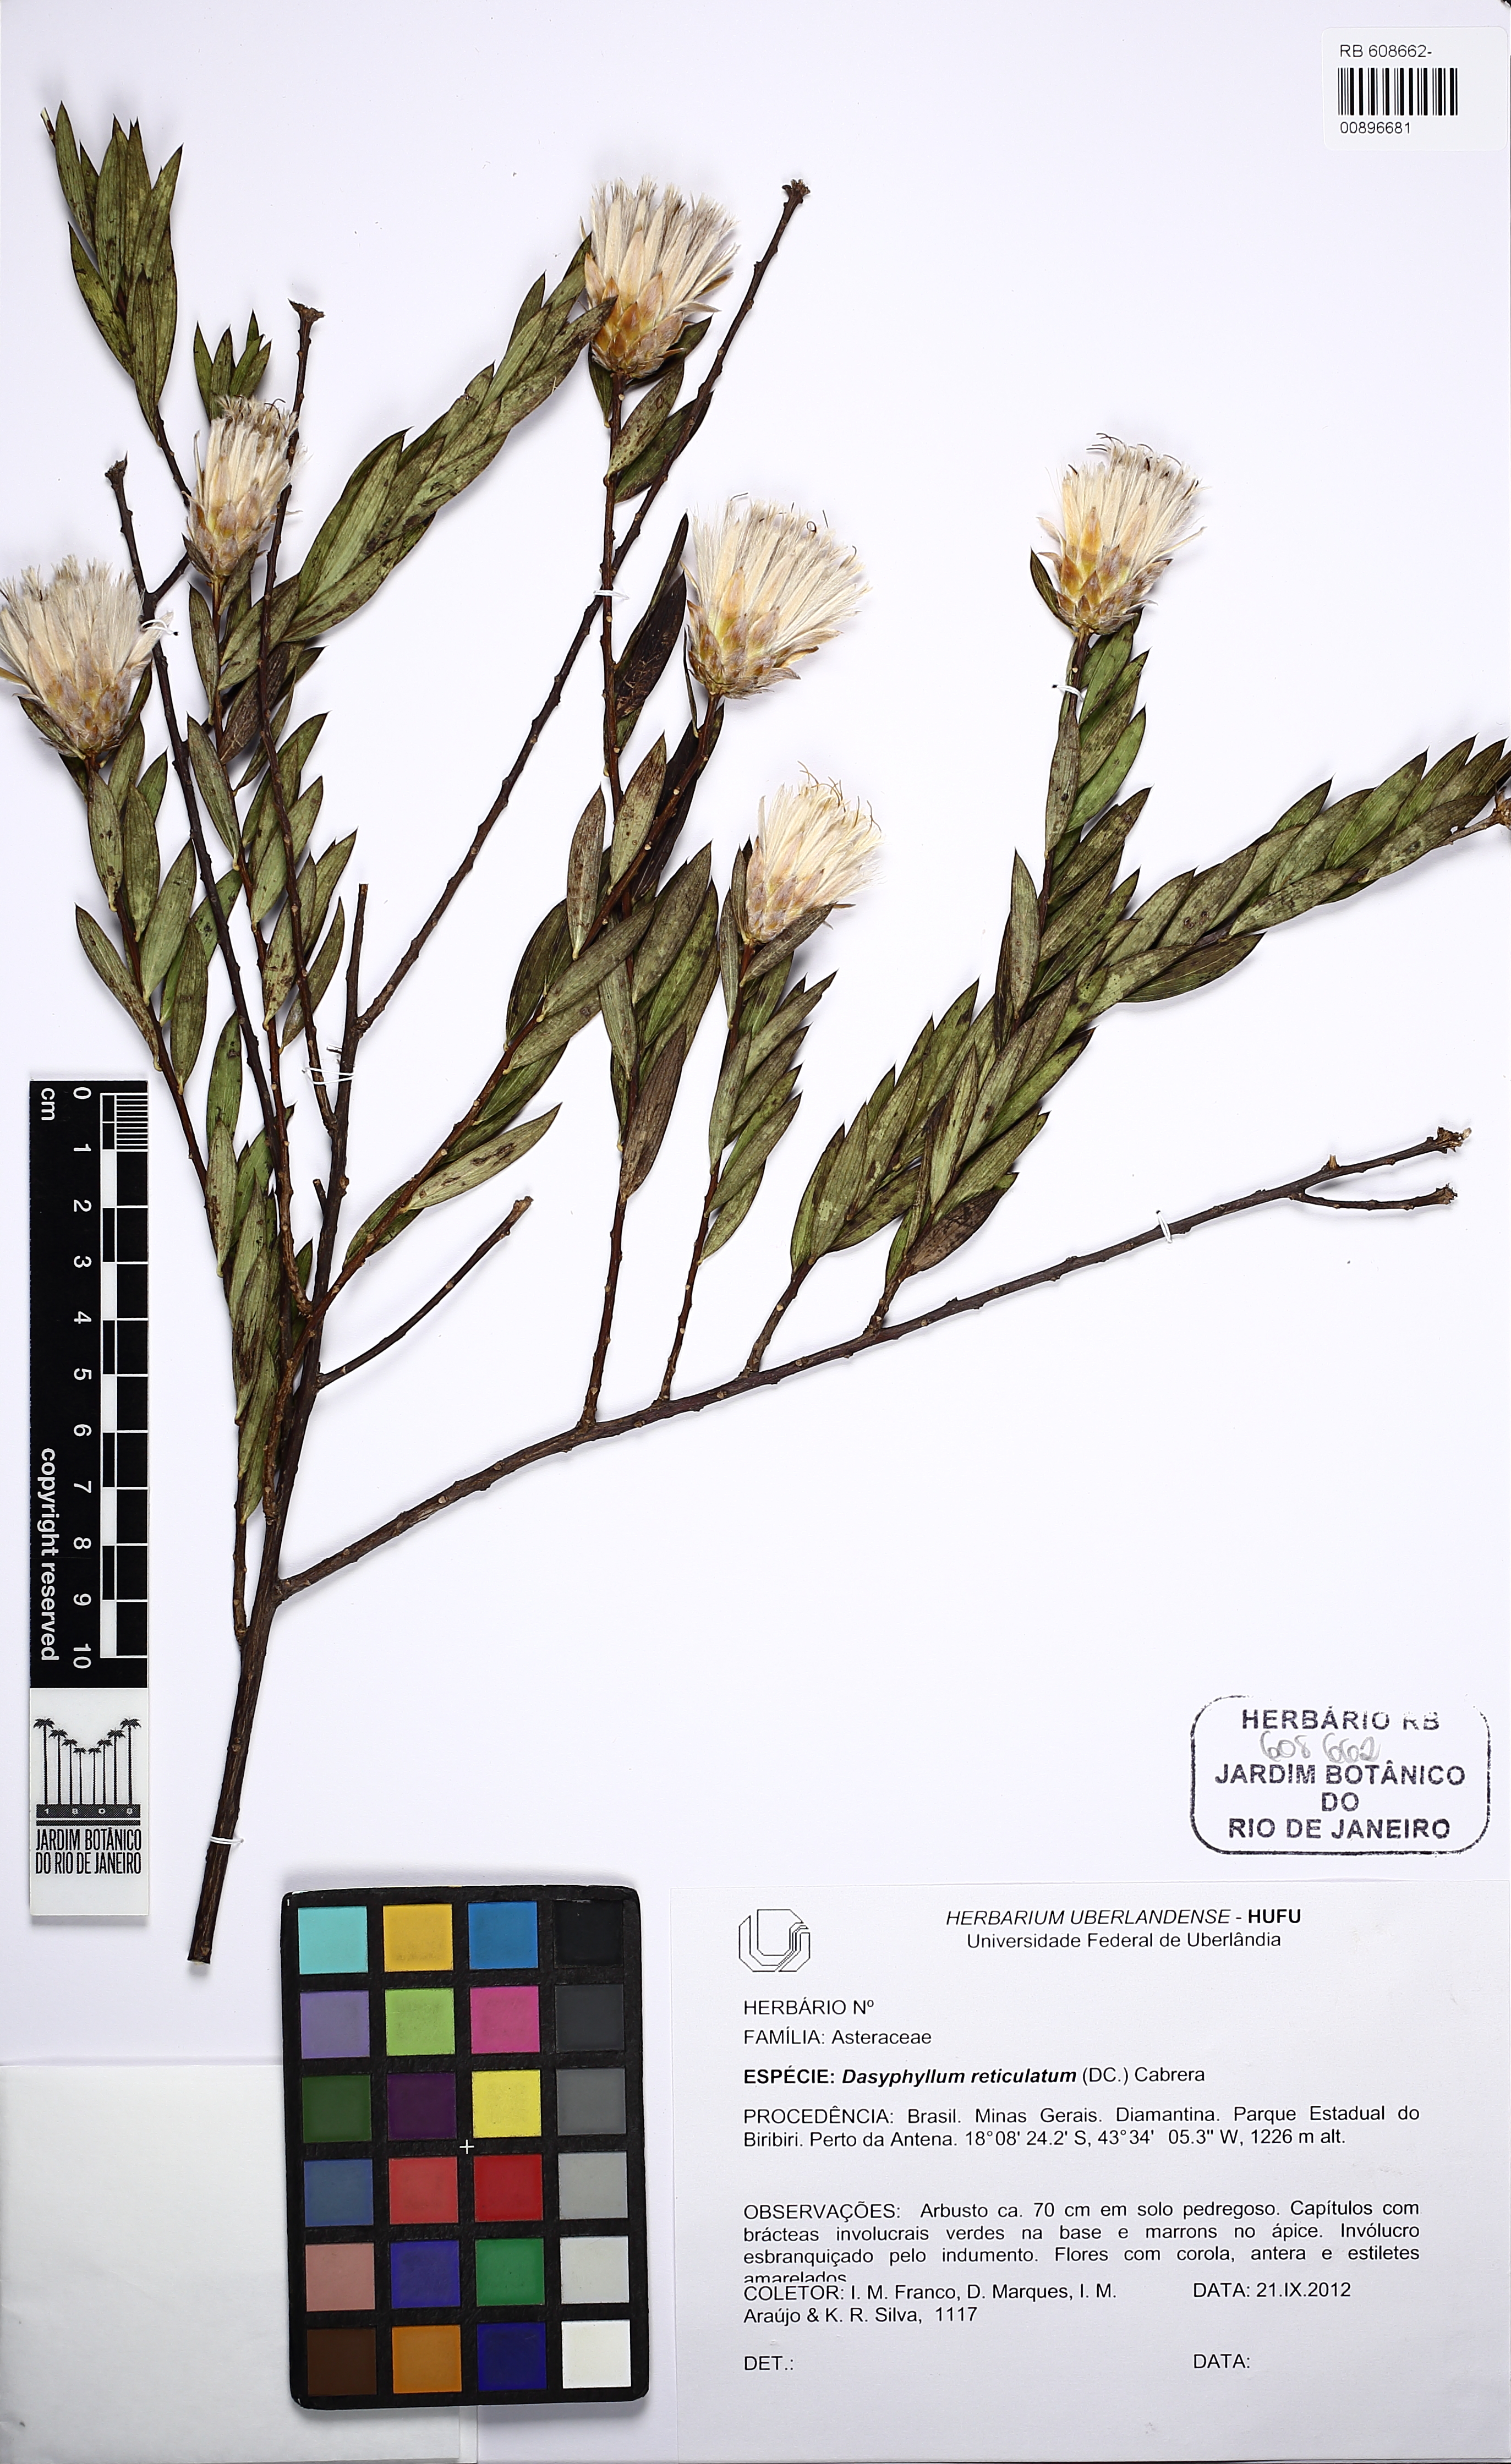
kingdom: Plantae
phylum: Tracheophyta
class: Magnoliopsida
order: Asterales
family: Asteraceae
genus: Dasyphyllum
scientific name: Dasyphyllum reticulatum
